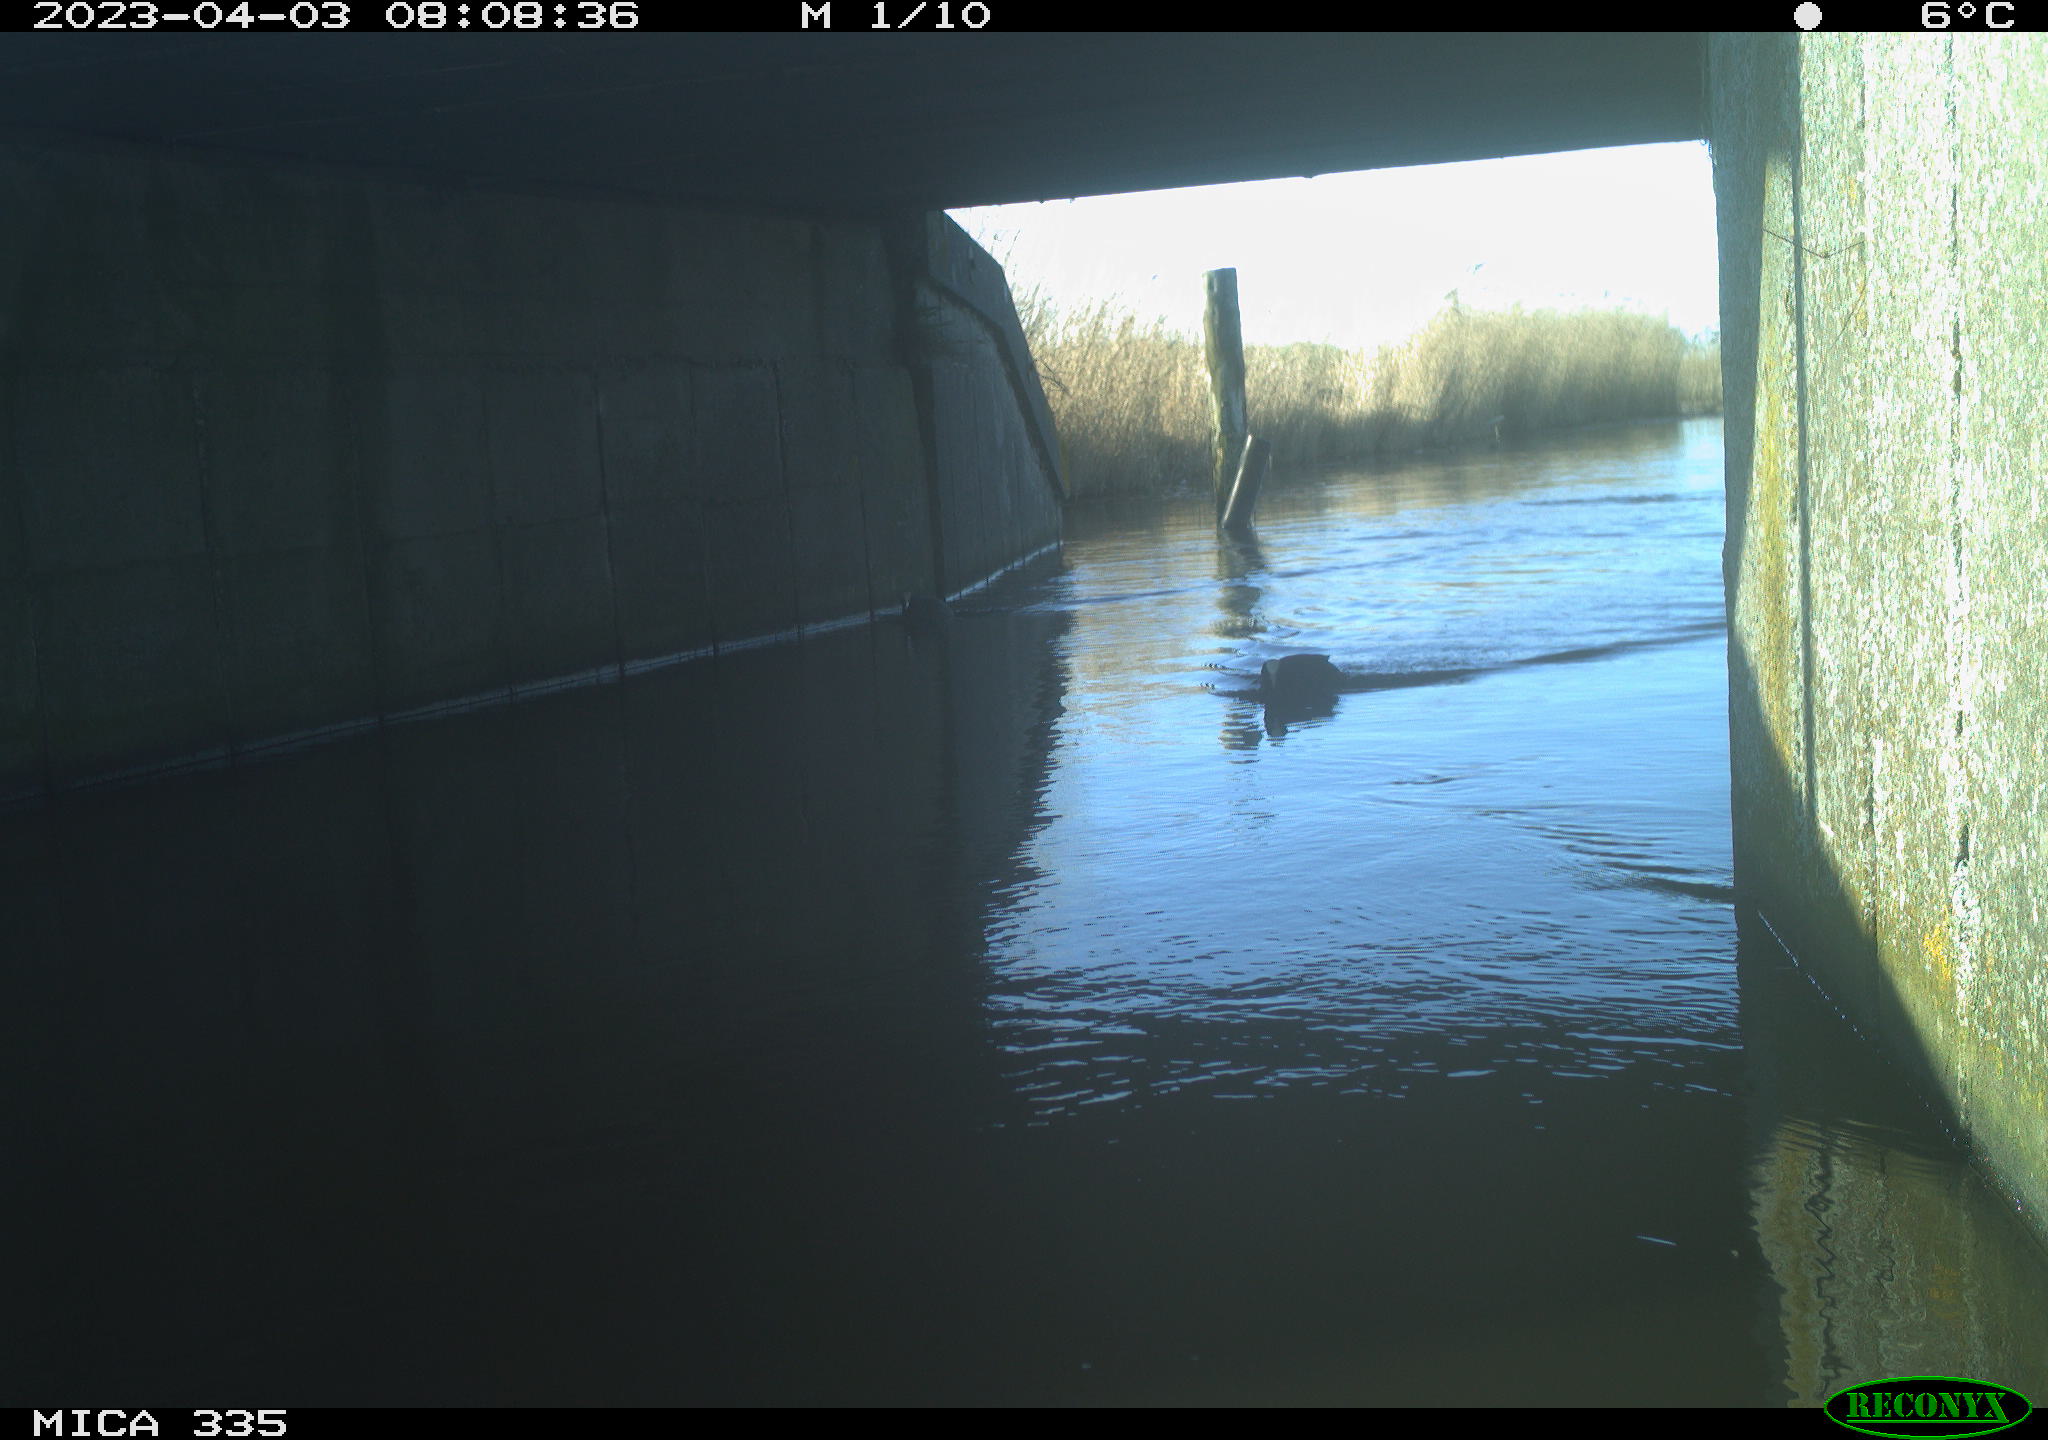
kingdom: Animalia
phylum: Chordata
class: Aves
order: Anseriformes
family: Anatidae
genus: Anas
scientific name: Anas
